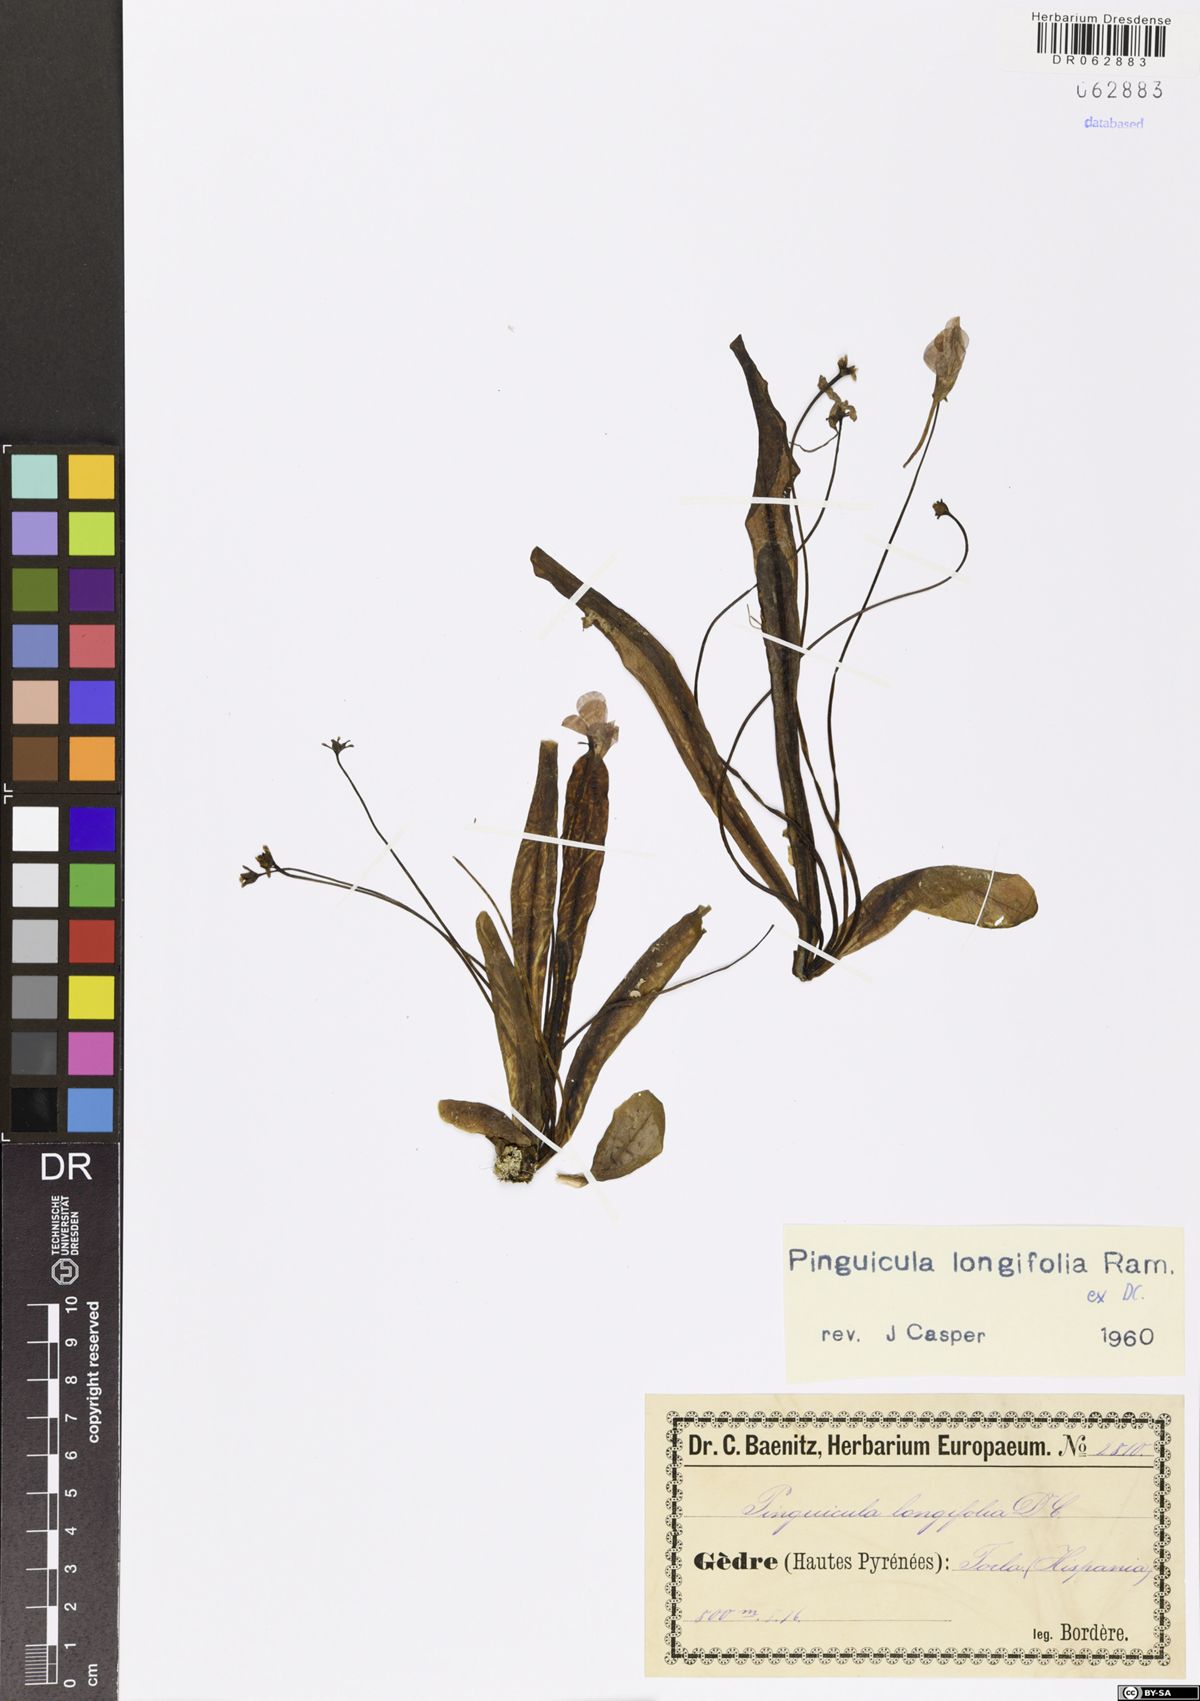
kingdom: Plantae
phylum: Tracheophyta
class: Magnoliopsida
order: Lamiales
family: Lentibulariaceae
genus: Pinguicula
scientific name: Pinguicula longifolia
